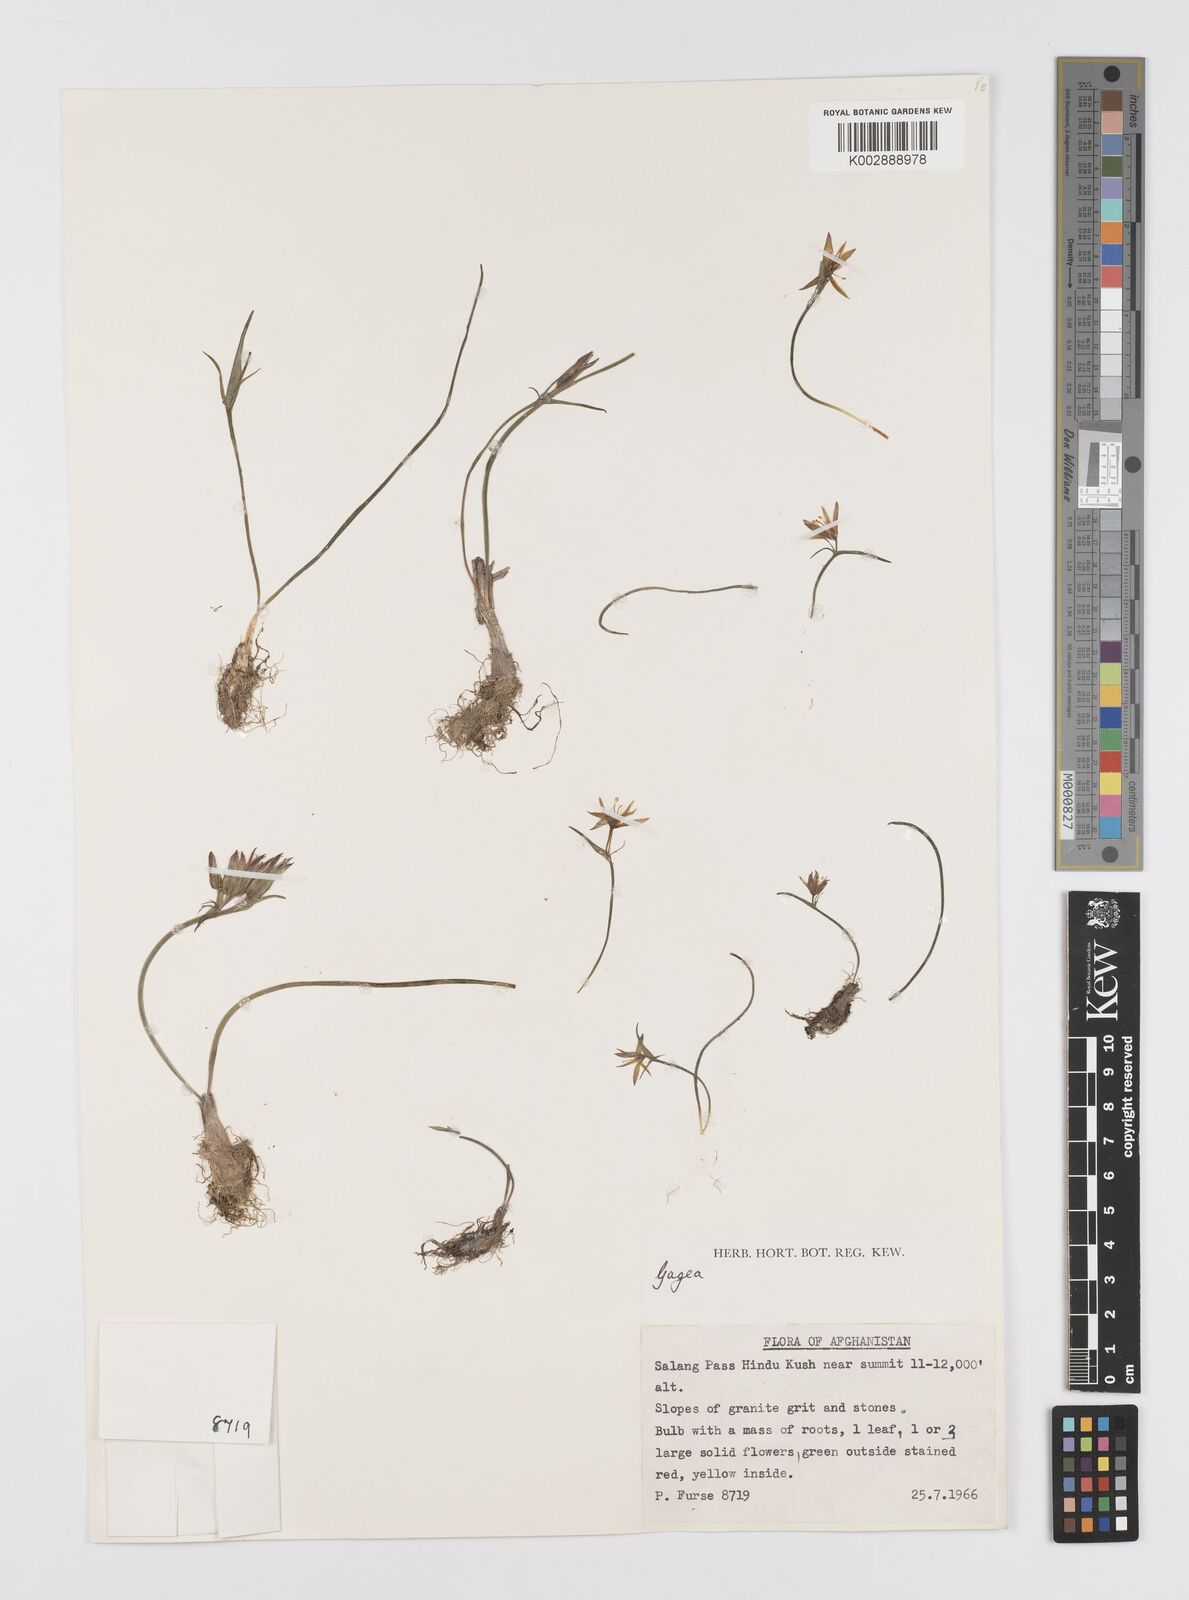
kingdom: Plantae
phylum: Tracheophyta
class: Liliopsida
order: Liliales
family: Liliaceae
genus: Gagea
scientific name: Gagea
